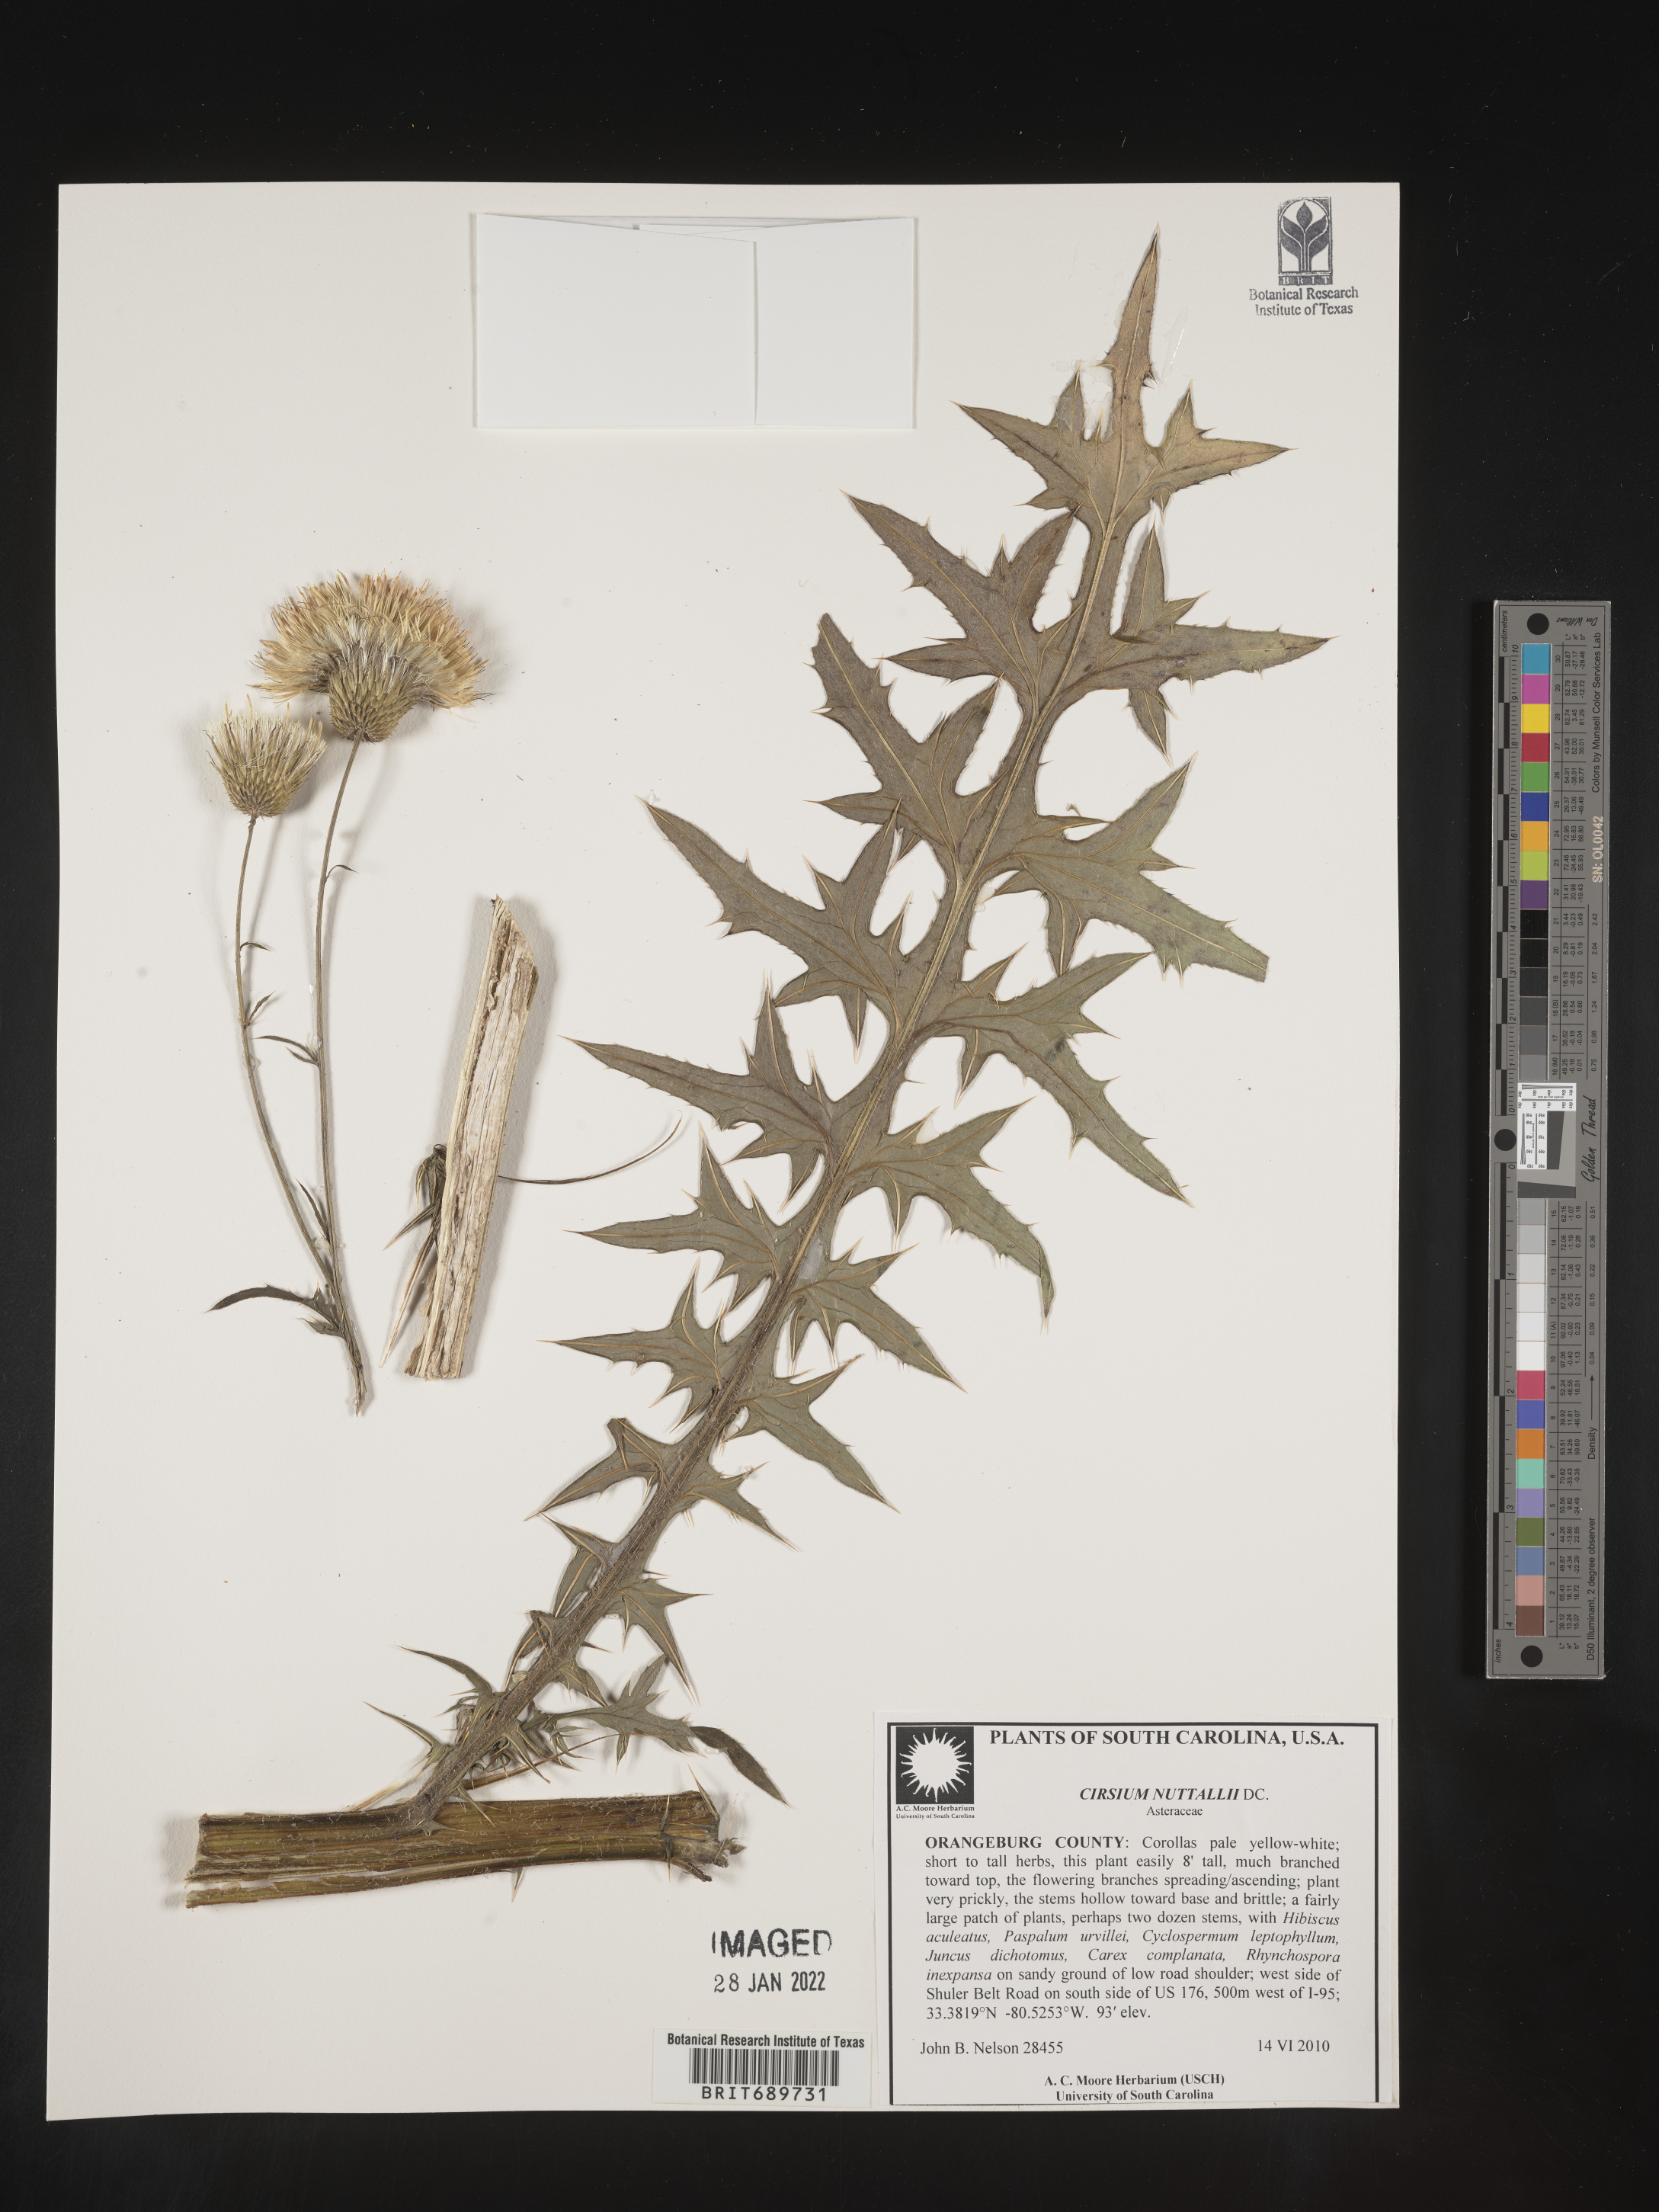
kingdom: Plantae
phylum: Tracheophyta
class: Magnoliopsida
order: Asterales
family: Asteraceae
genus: Cirsium
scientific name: Cirsium
